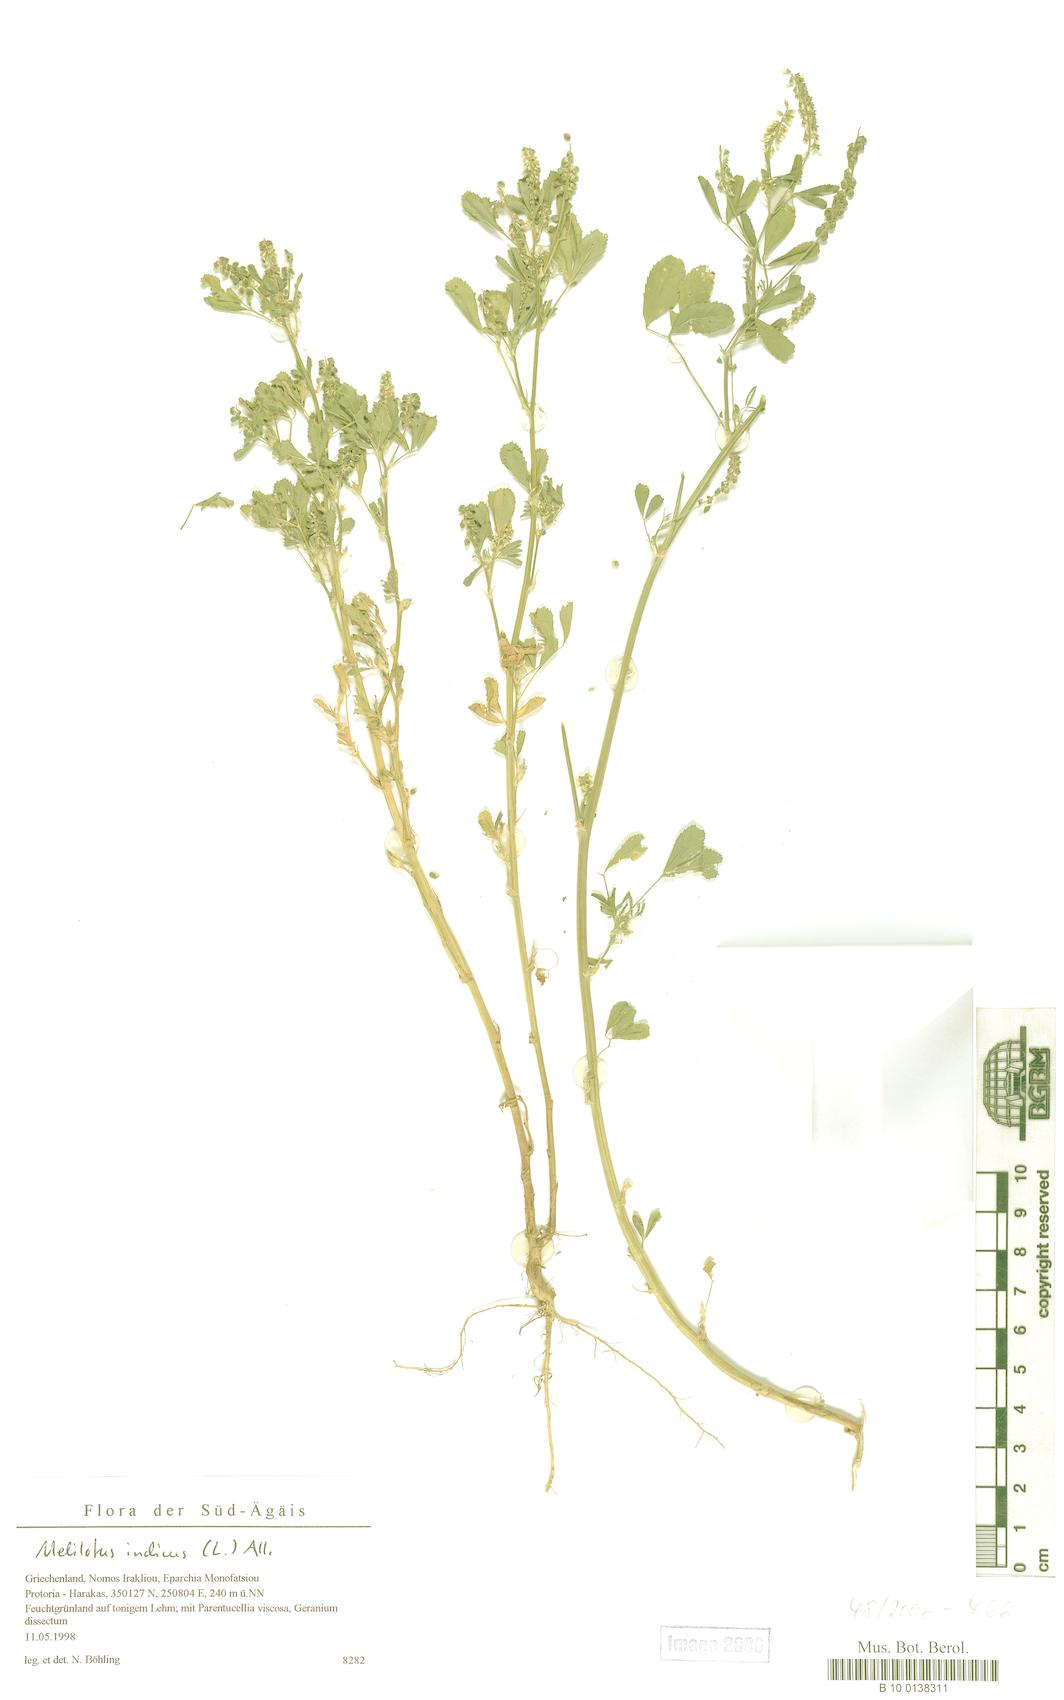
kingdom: Plantae
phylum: Tracheophyta
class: Magnoliopsida
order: Fabales
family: Fabaceae
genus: Melilotus
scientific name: Melilotus indicus
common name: Small melilot
